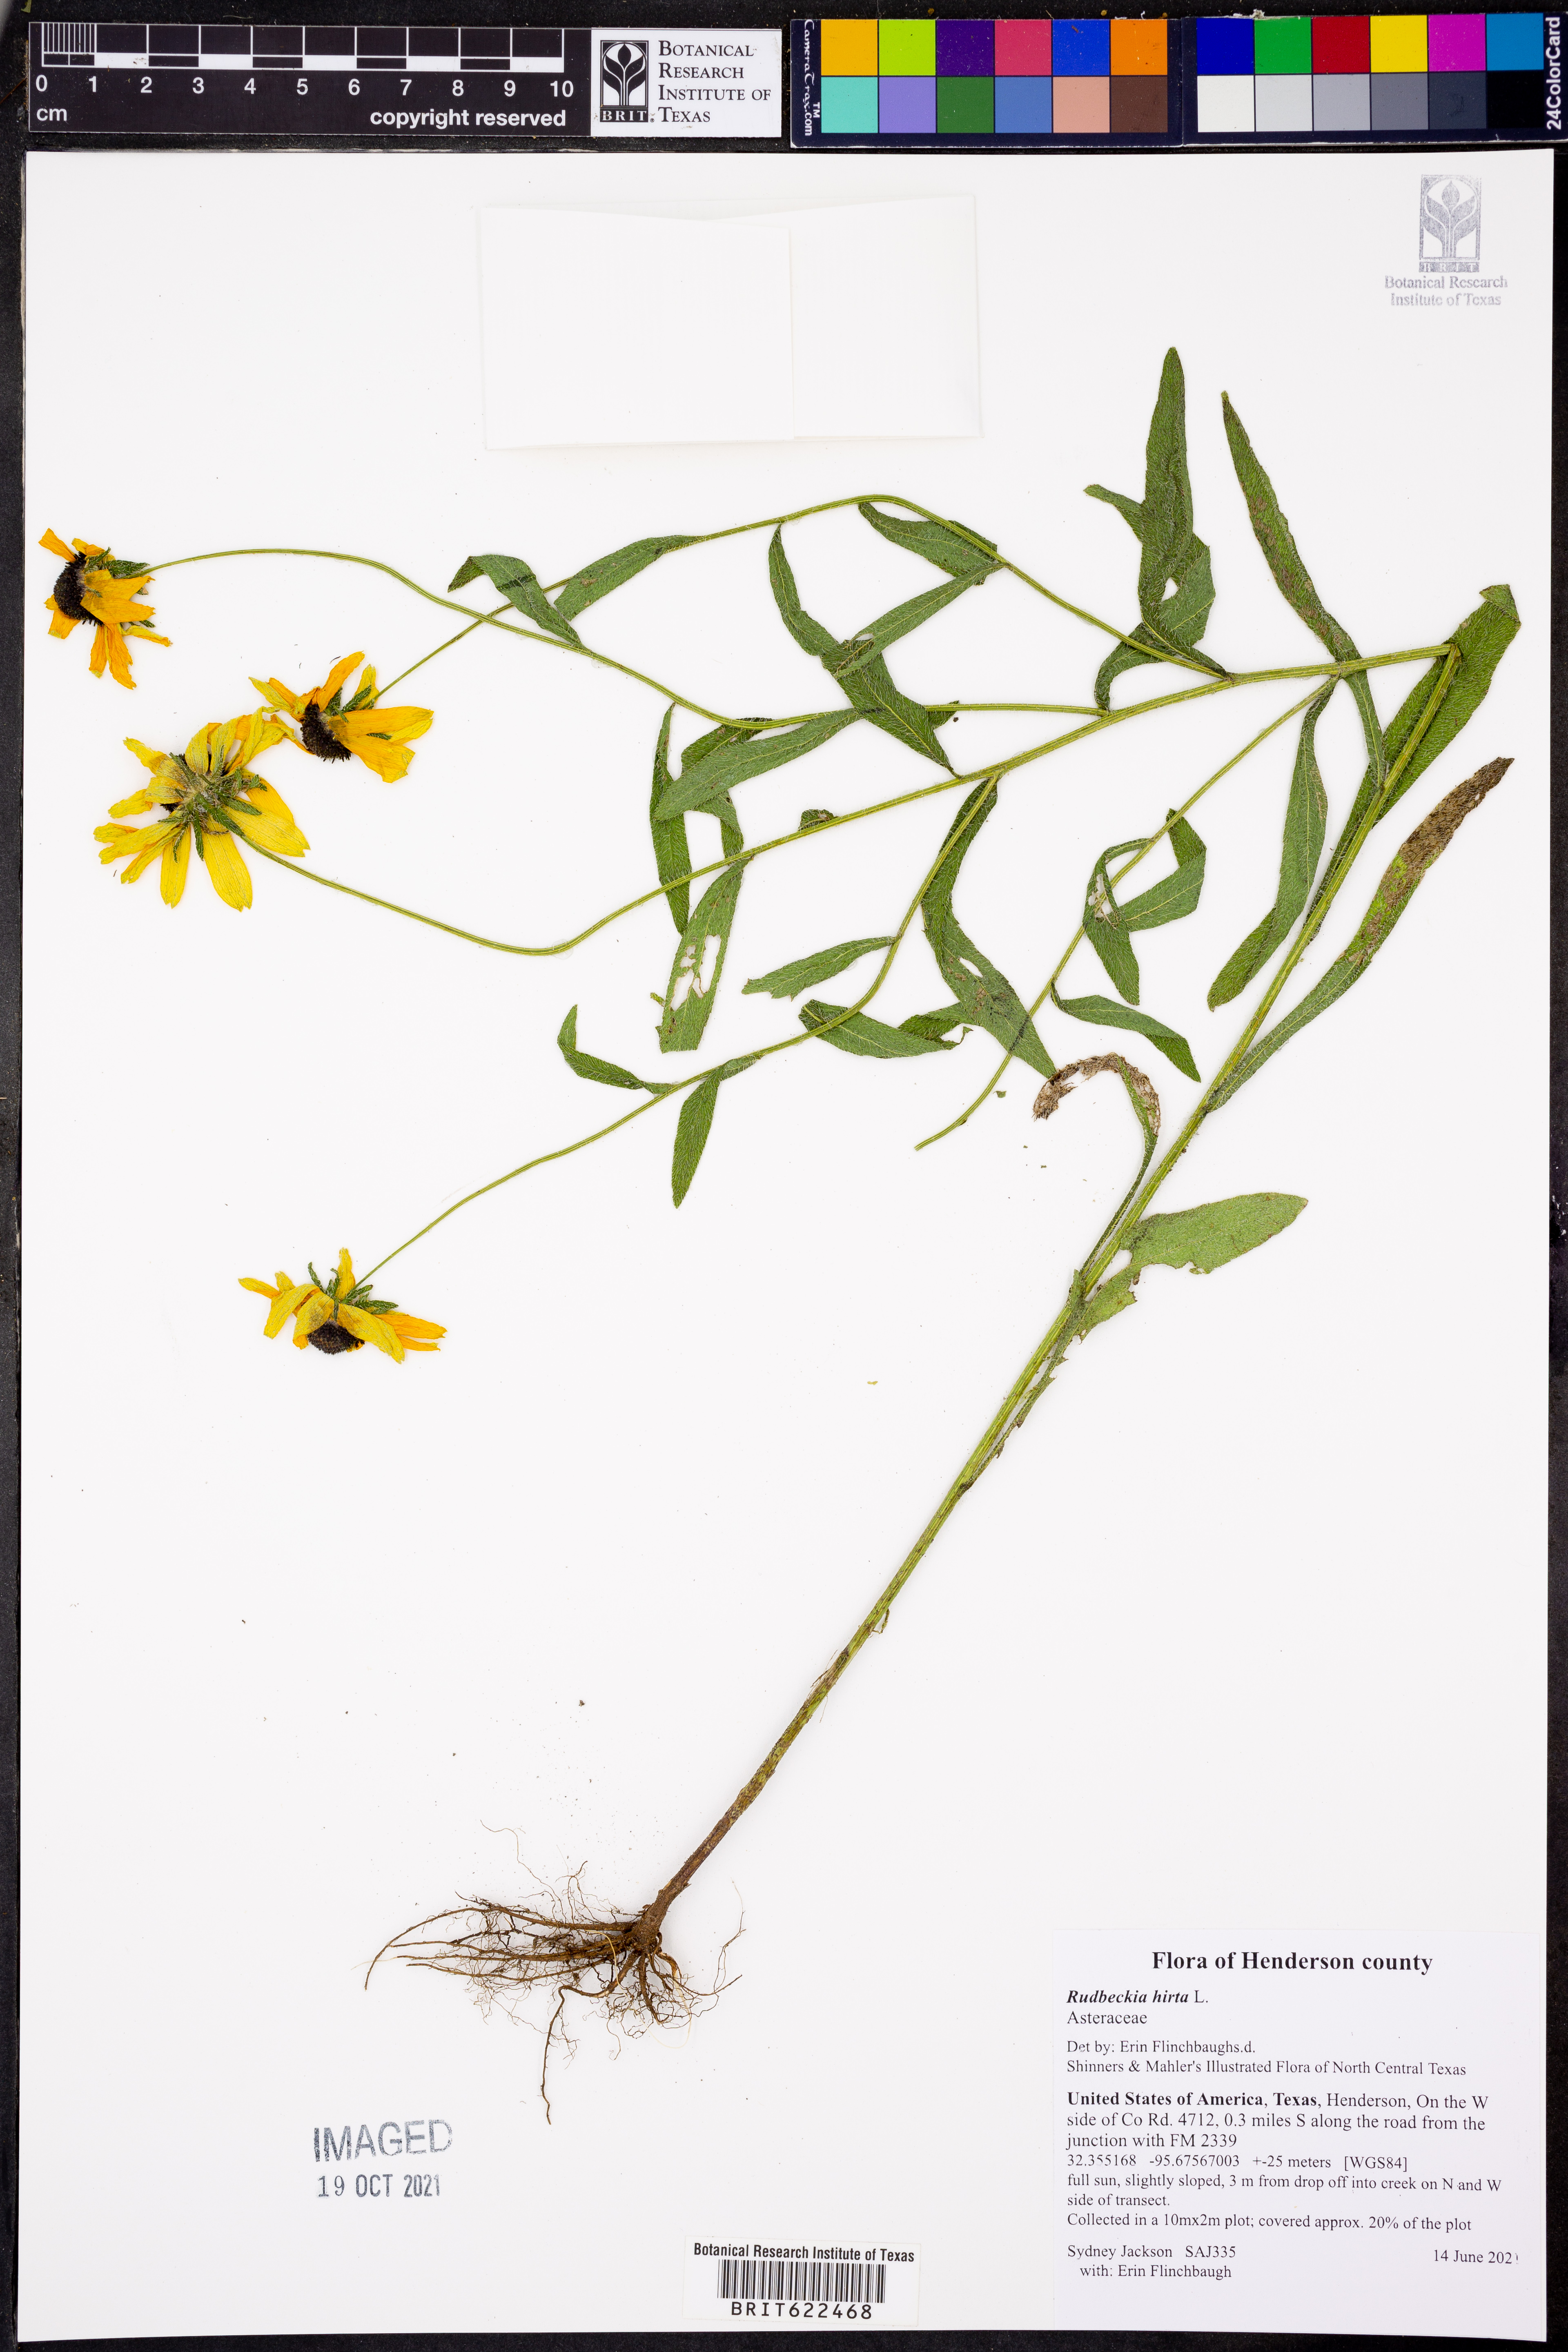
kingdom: Plantae
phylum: Tracheophyta
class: Magnoliopsida
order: Asterales
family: Asteraceae
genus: Rudbeckia
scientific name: Rudbeckia hirta
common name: Black-eyed-susan
